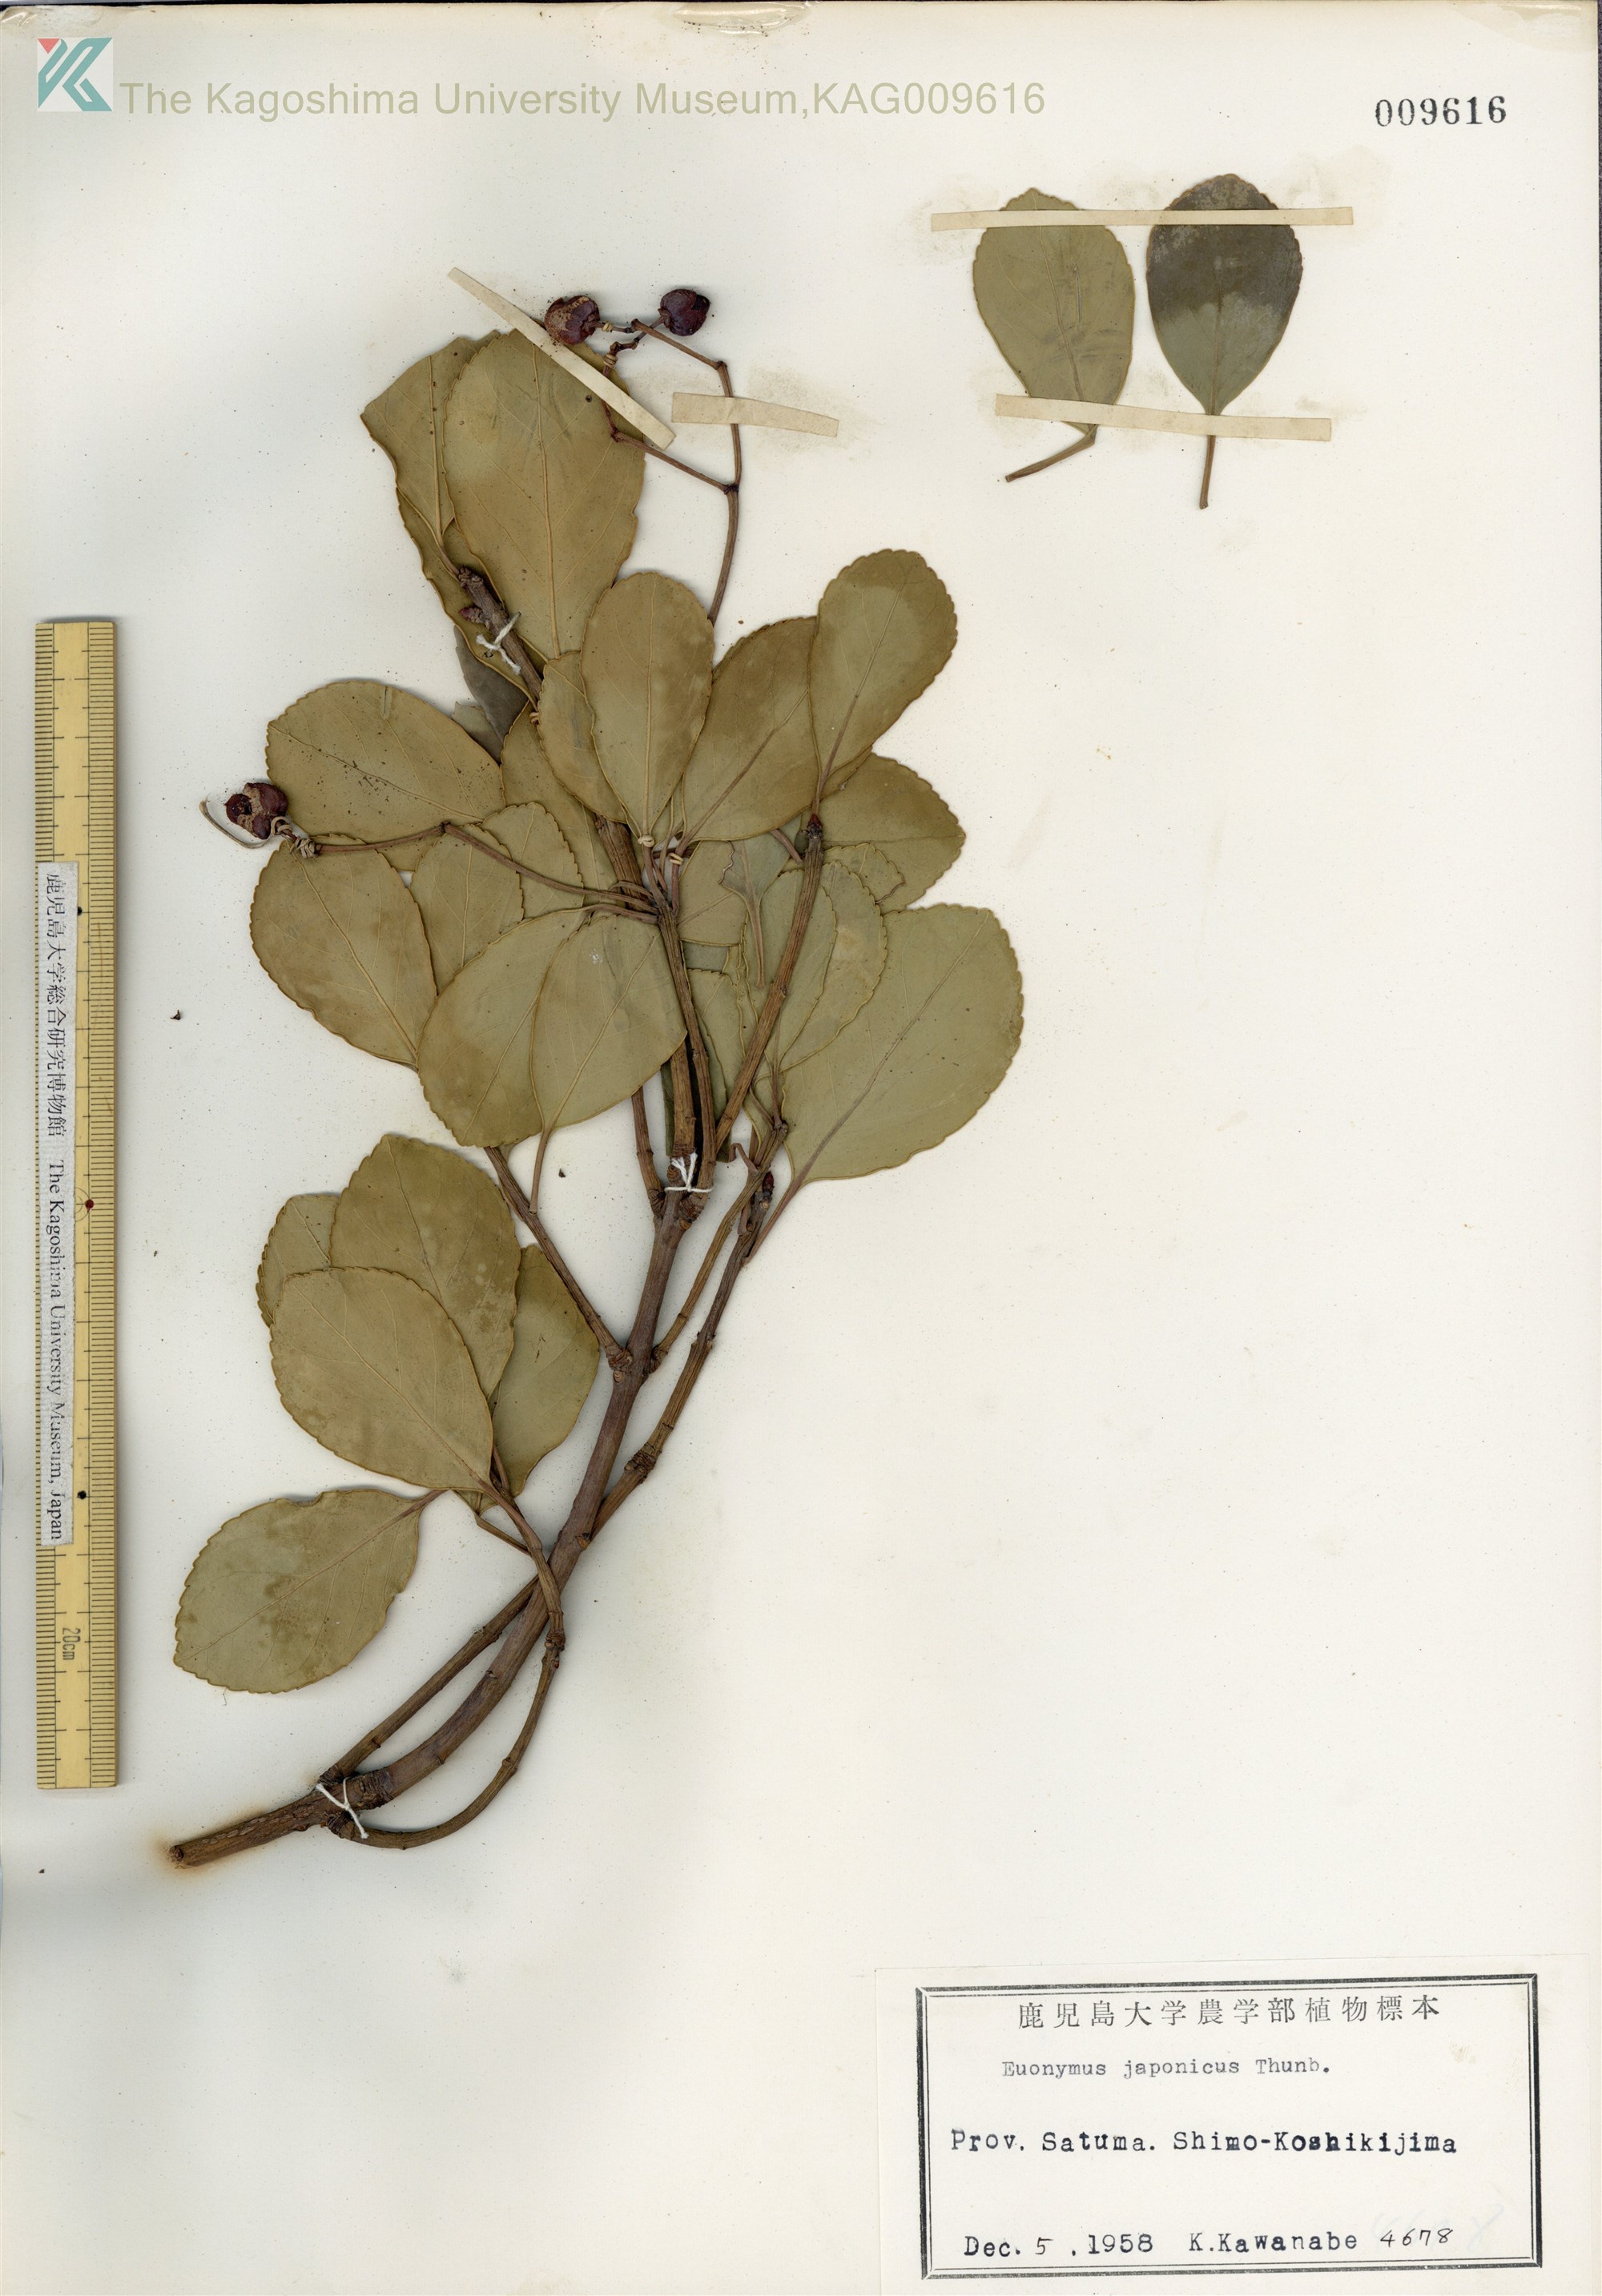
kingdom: Plantae
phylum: Tracheophyta
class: Magnoliopsida
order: Celastrales
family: Celastraceae
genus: Euonymus
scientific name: Euonymus japonicus
